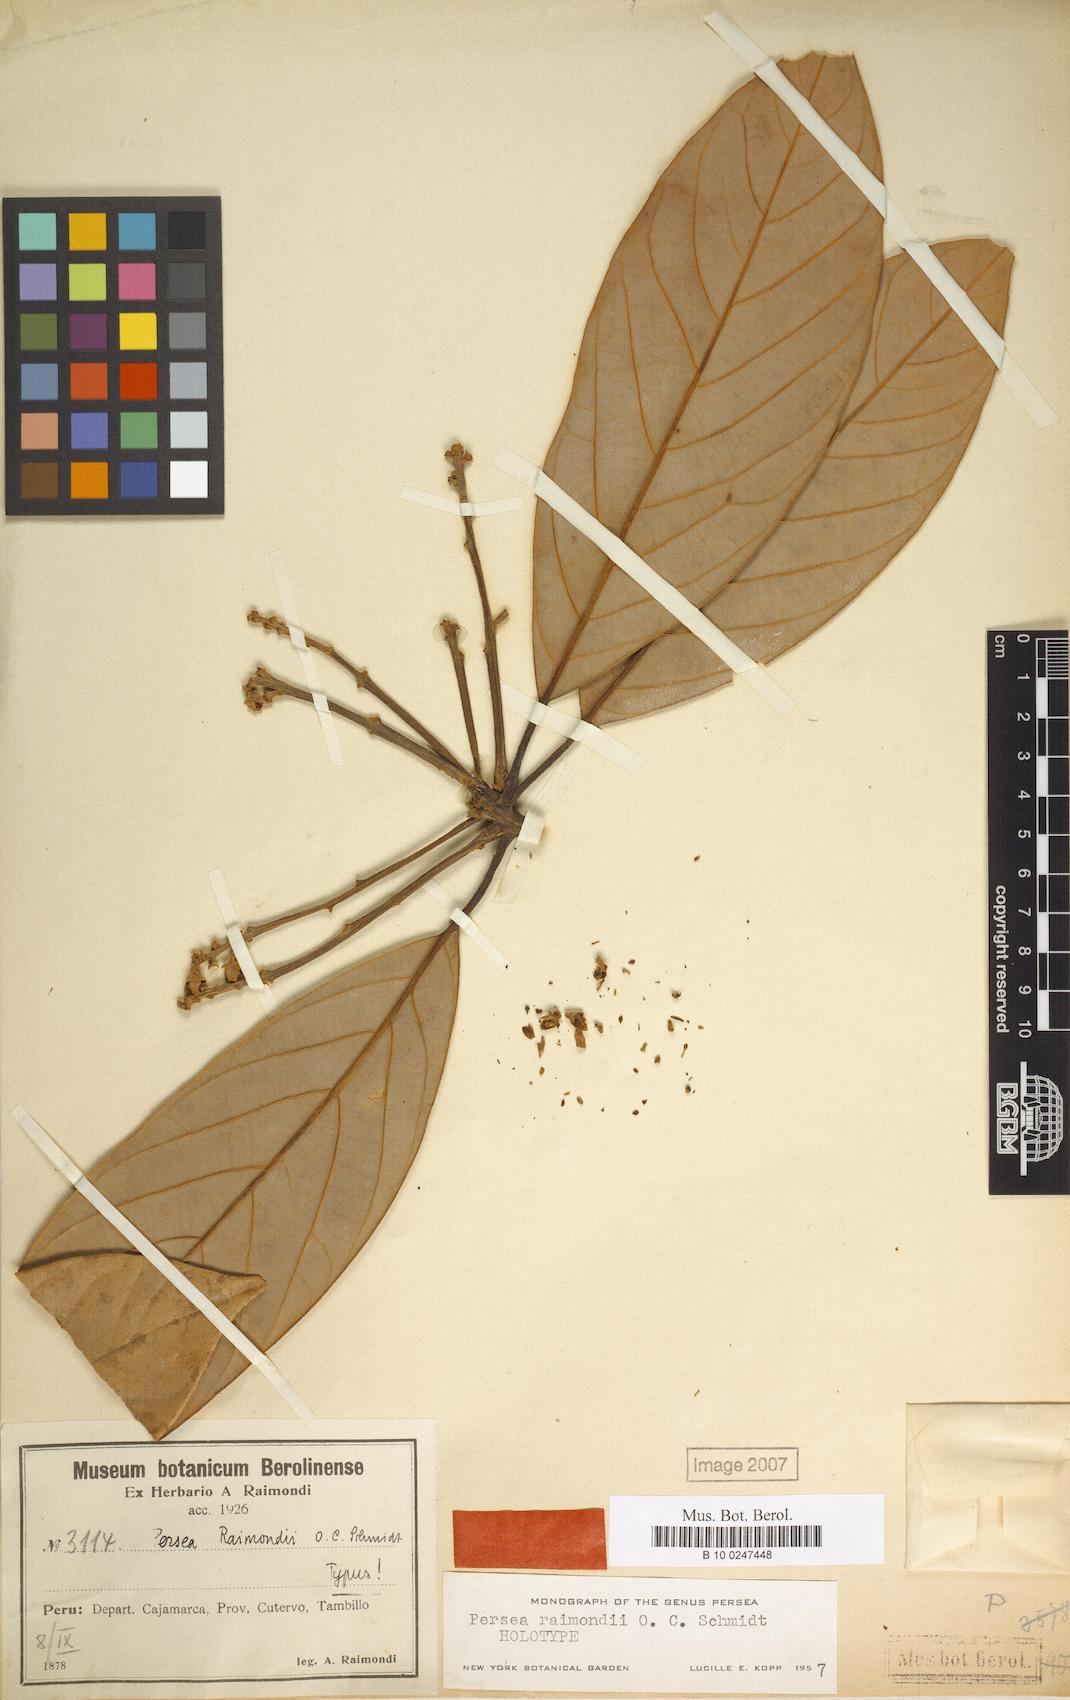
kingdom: Plantae
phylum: Tracheophyta
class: Magnoliopsida
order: Laurales
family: Lauraceae
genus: Persea
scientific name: Persea raimondii
